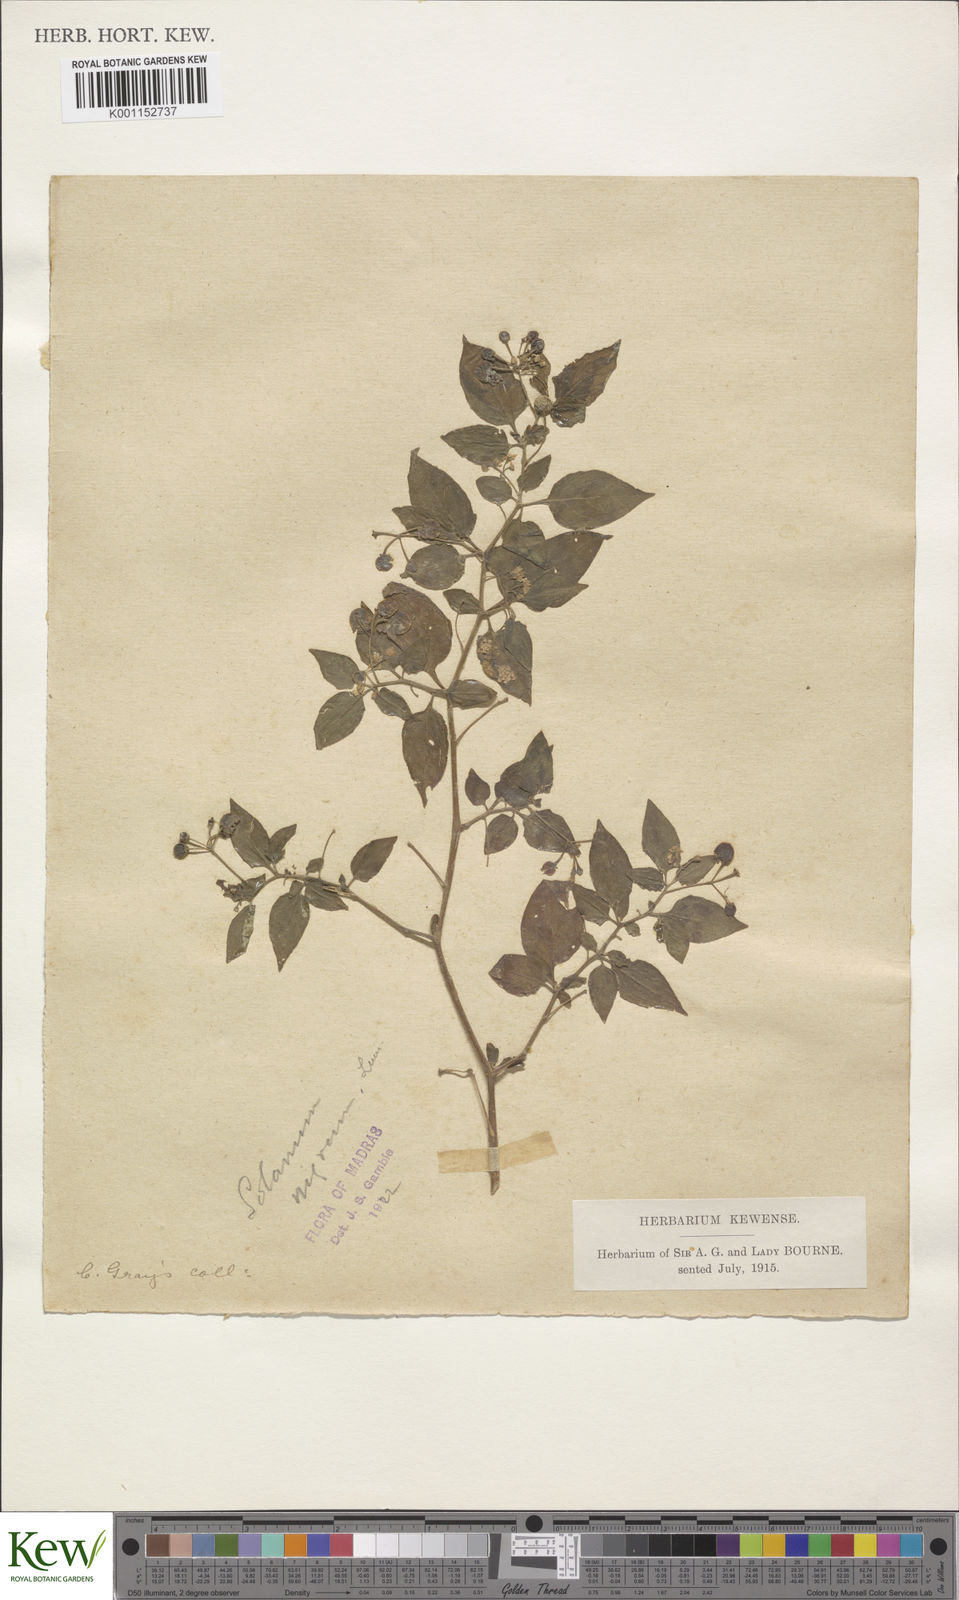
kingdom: Plantae
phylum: Tracheophyta
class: Magnoliopsida
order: Solanales
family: Solanaceae
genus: Solanum
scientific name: Solanum nigrum
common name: Black nightshade
